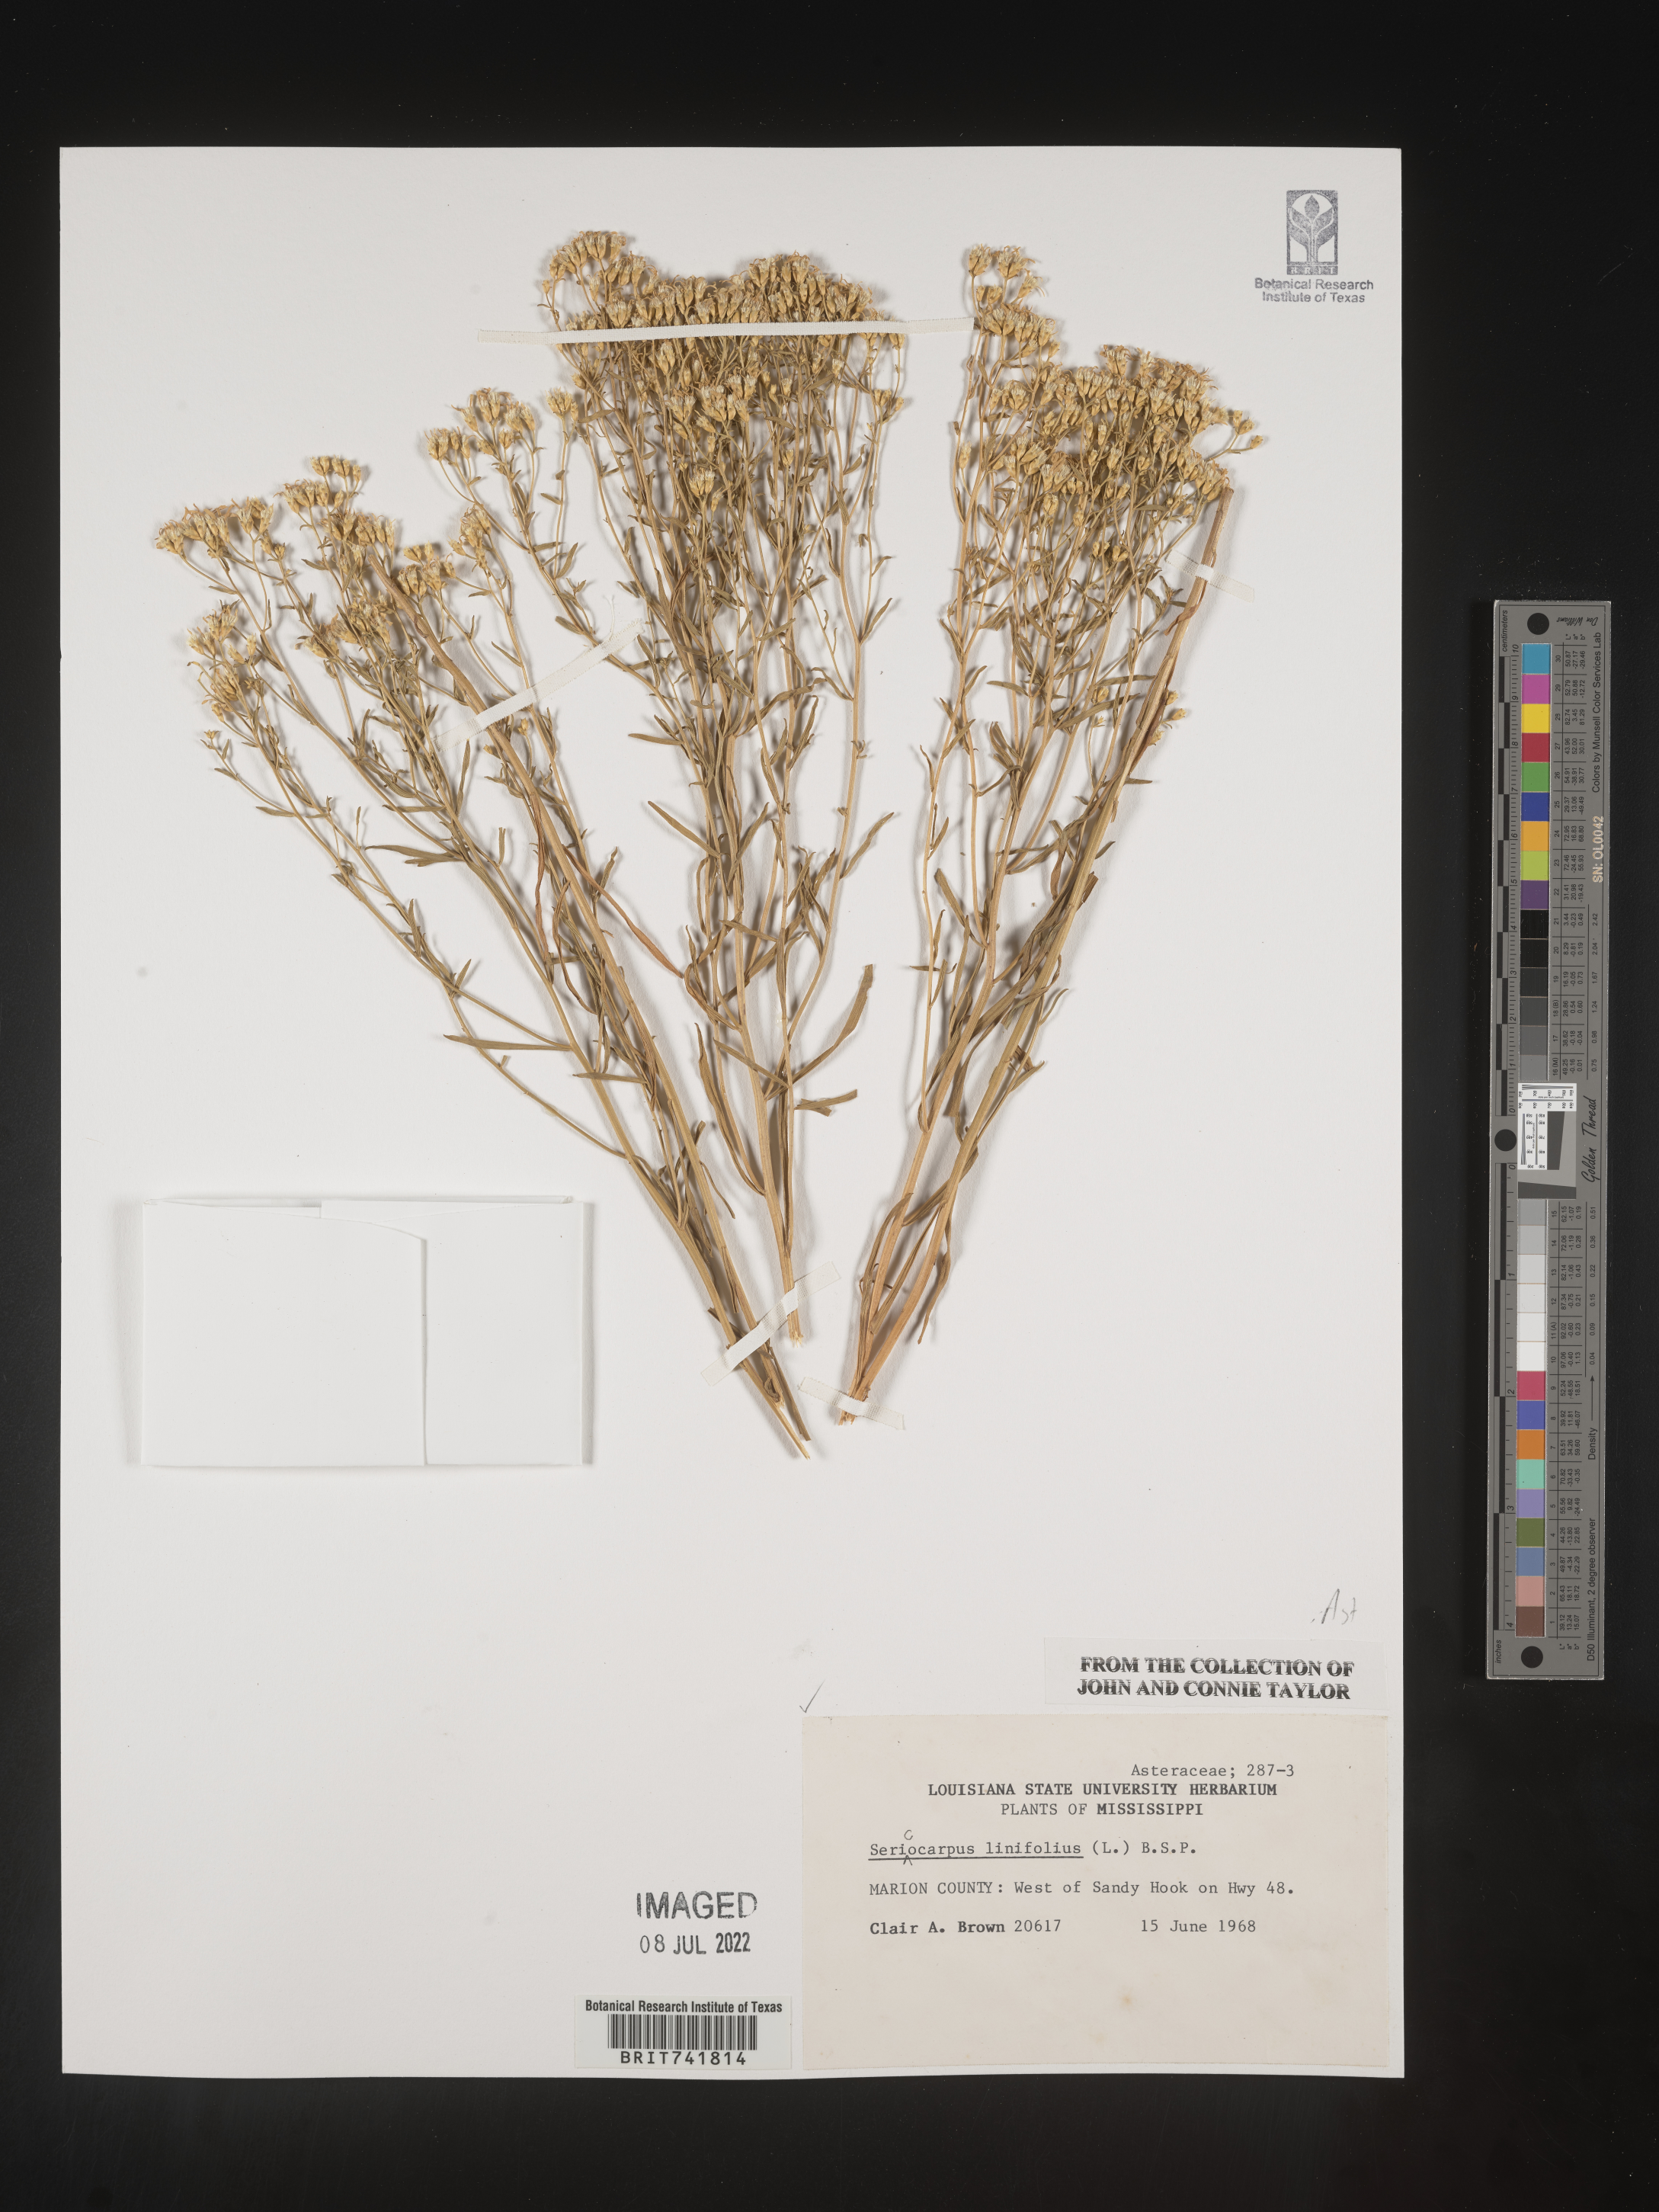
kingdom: Plantae
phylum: Tracheophyta
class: Magnoliopsida
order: Asterales
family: Asteraceae
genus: Sericocarpus
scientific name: Sericocarpus linifolius
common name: Narrow-leaf aster
